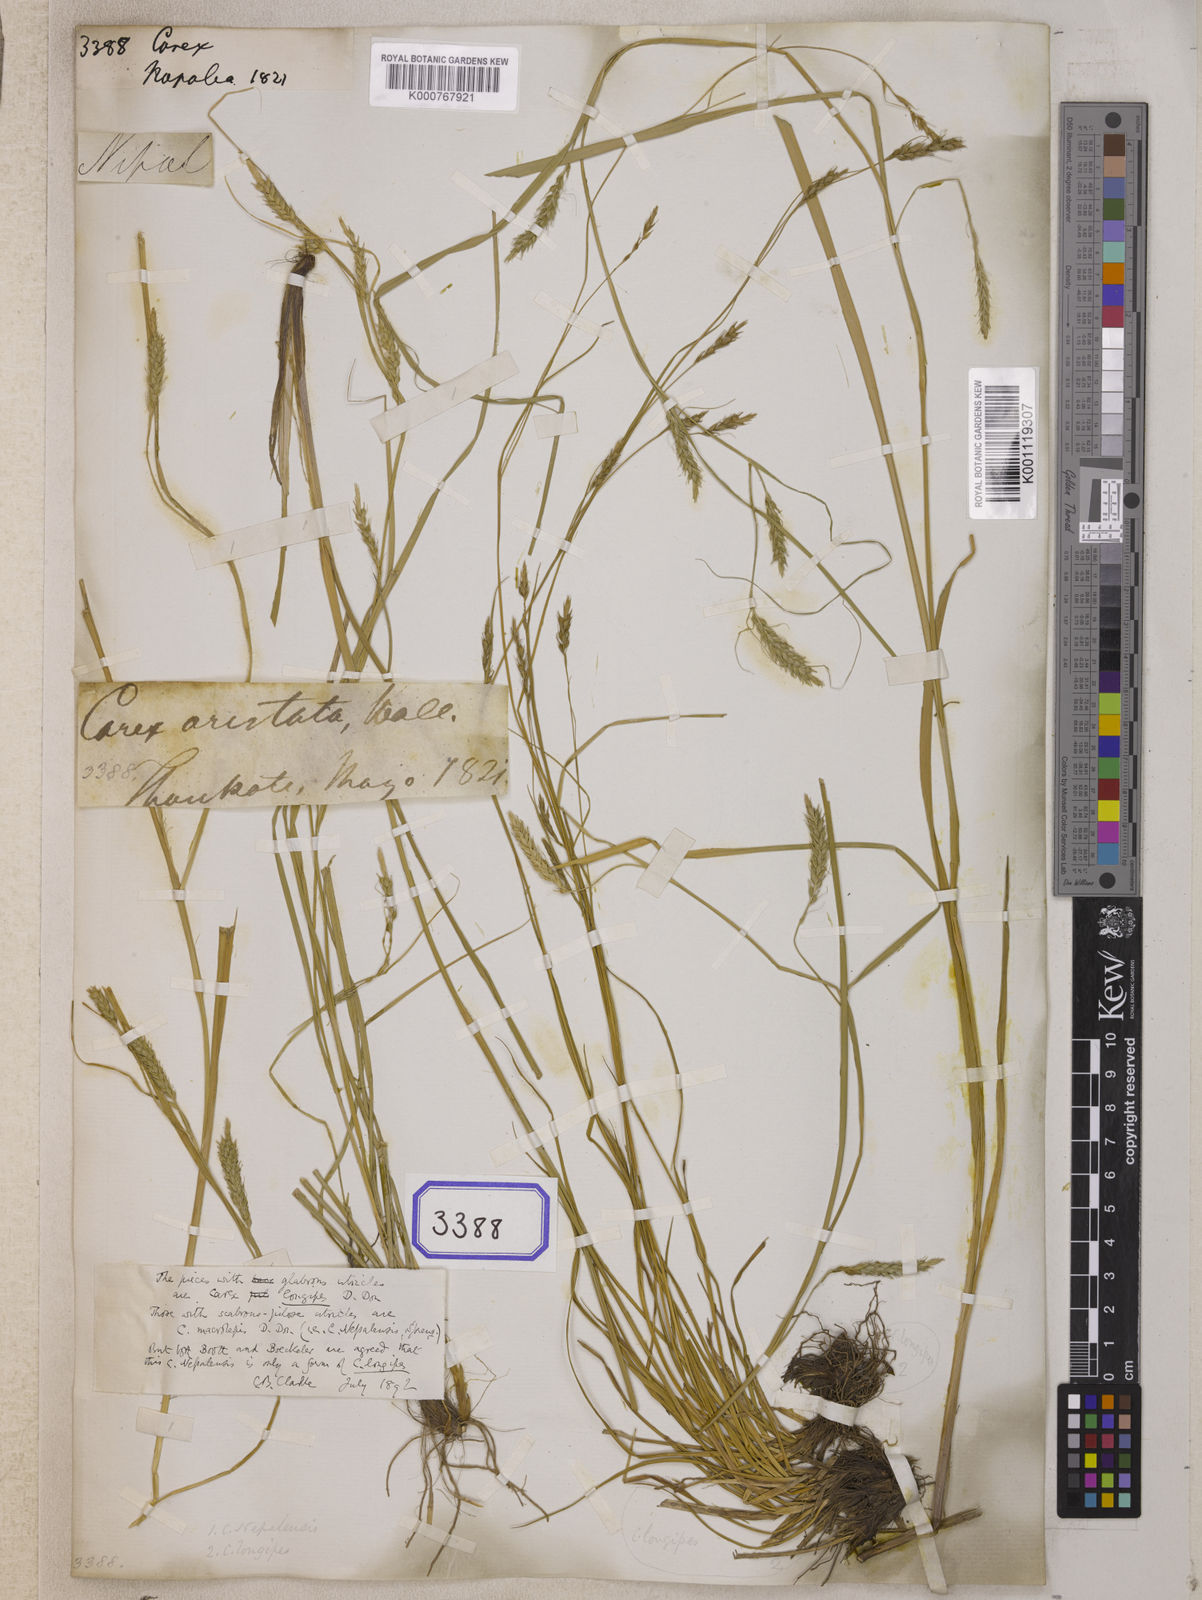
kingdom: Plantae
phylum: Tracheophyta
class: Liliopsida
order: Poales
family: Cyperaceae
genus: Carex
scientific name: Carex
